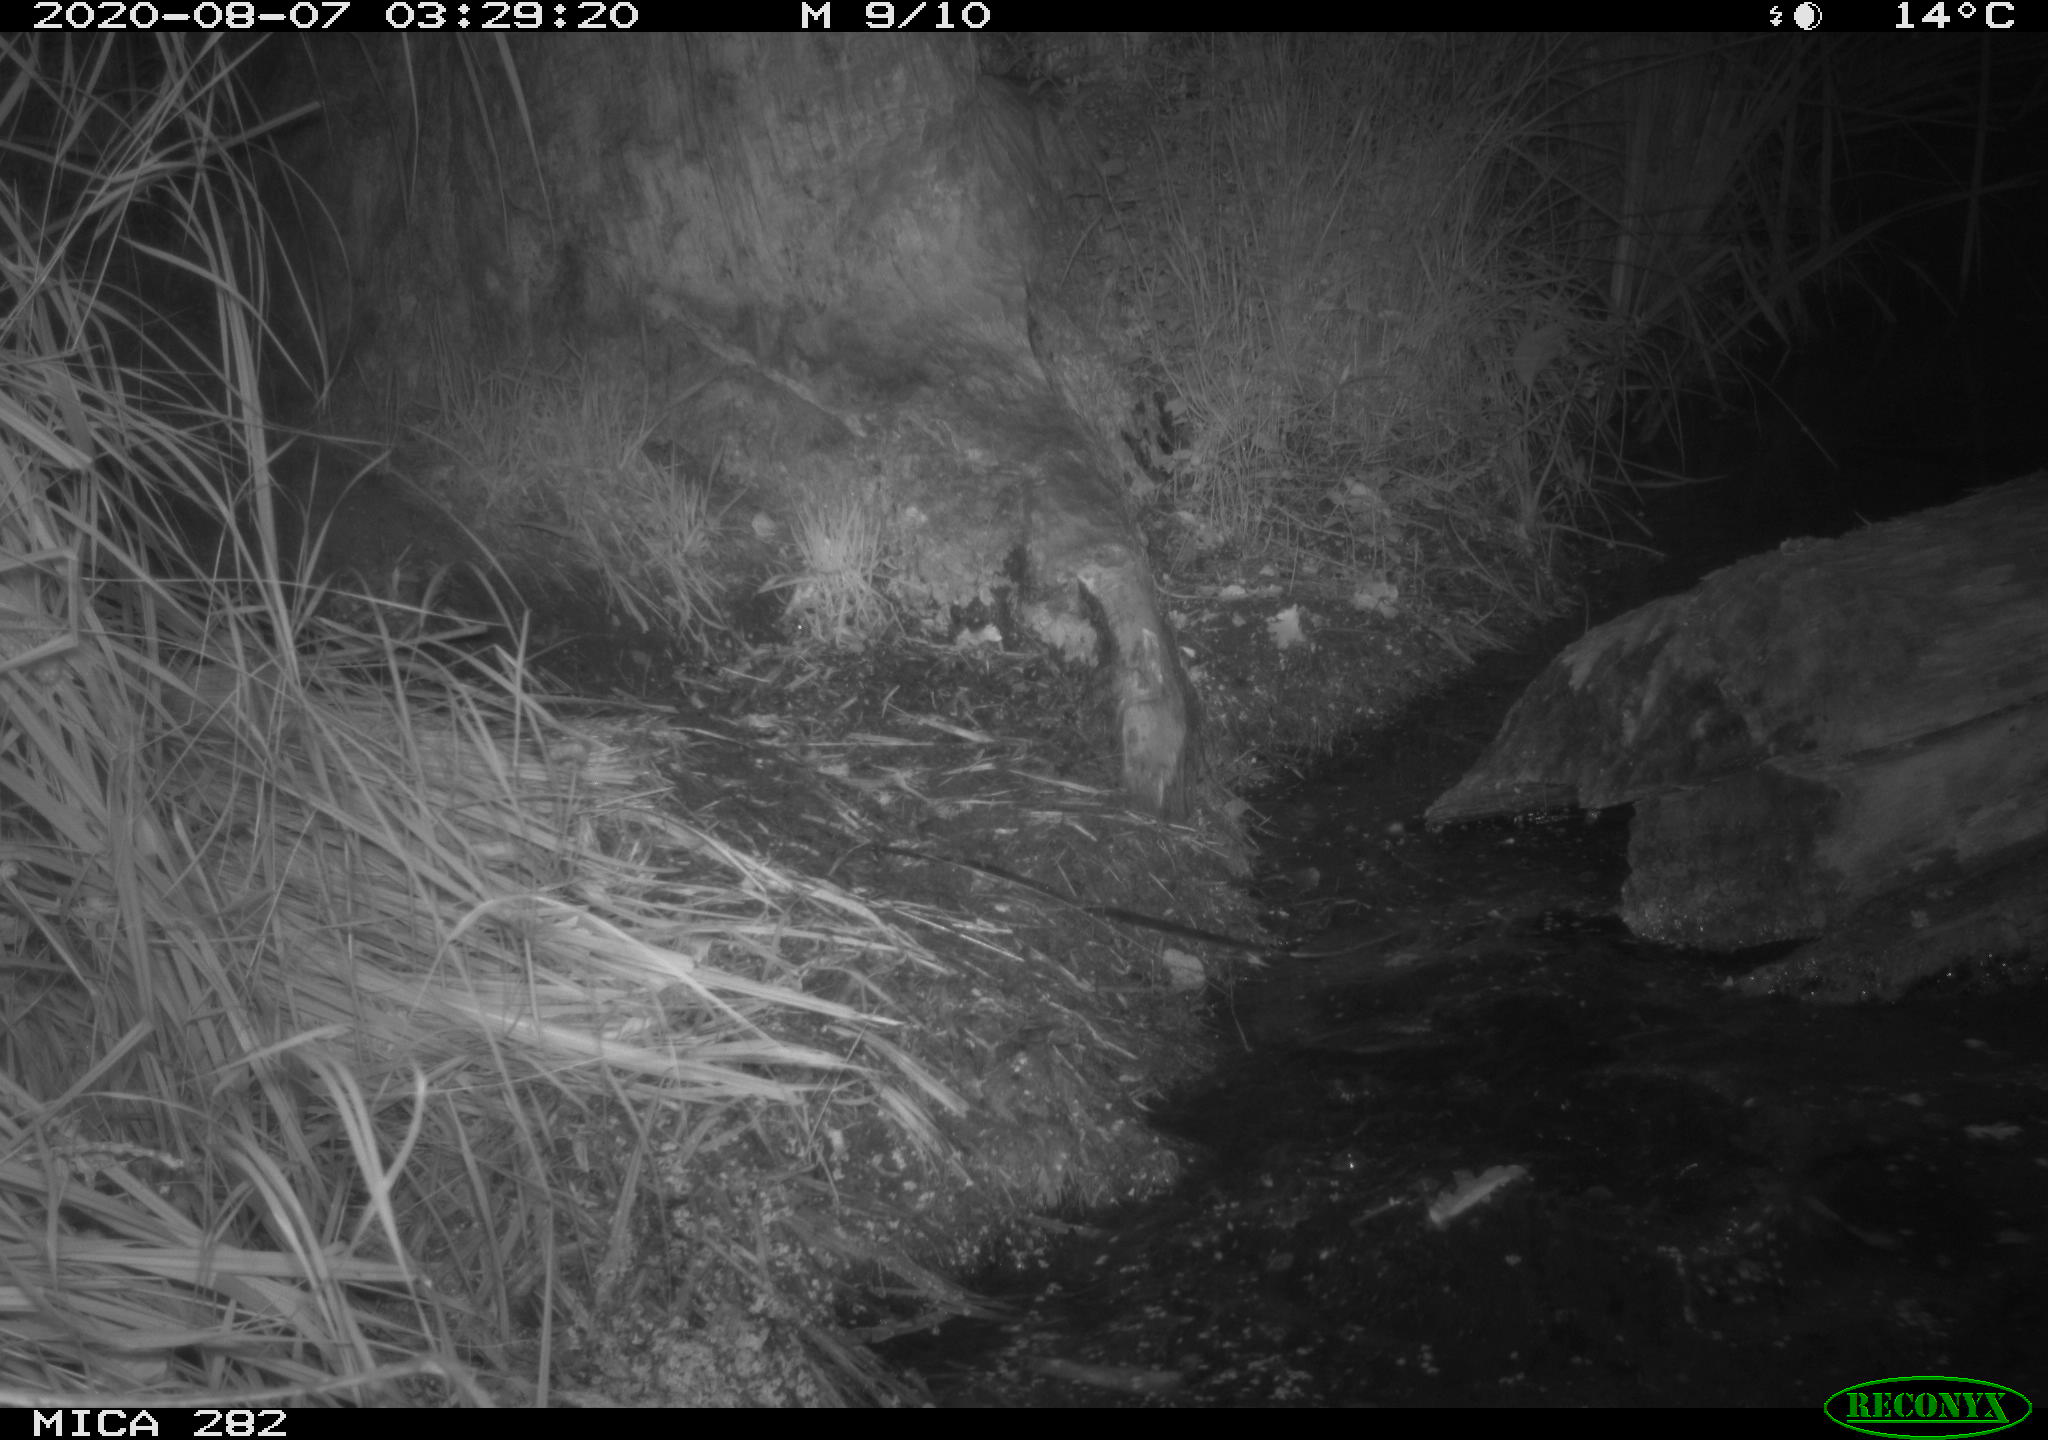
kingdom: Animalia
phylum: Chordata
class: Mammalia
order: Rodentia
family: Castoridae
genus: Castor
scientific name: Castor fiber
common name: Eurasian beaver
